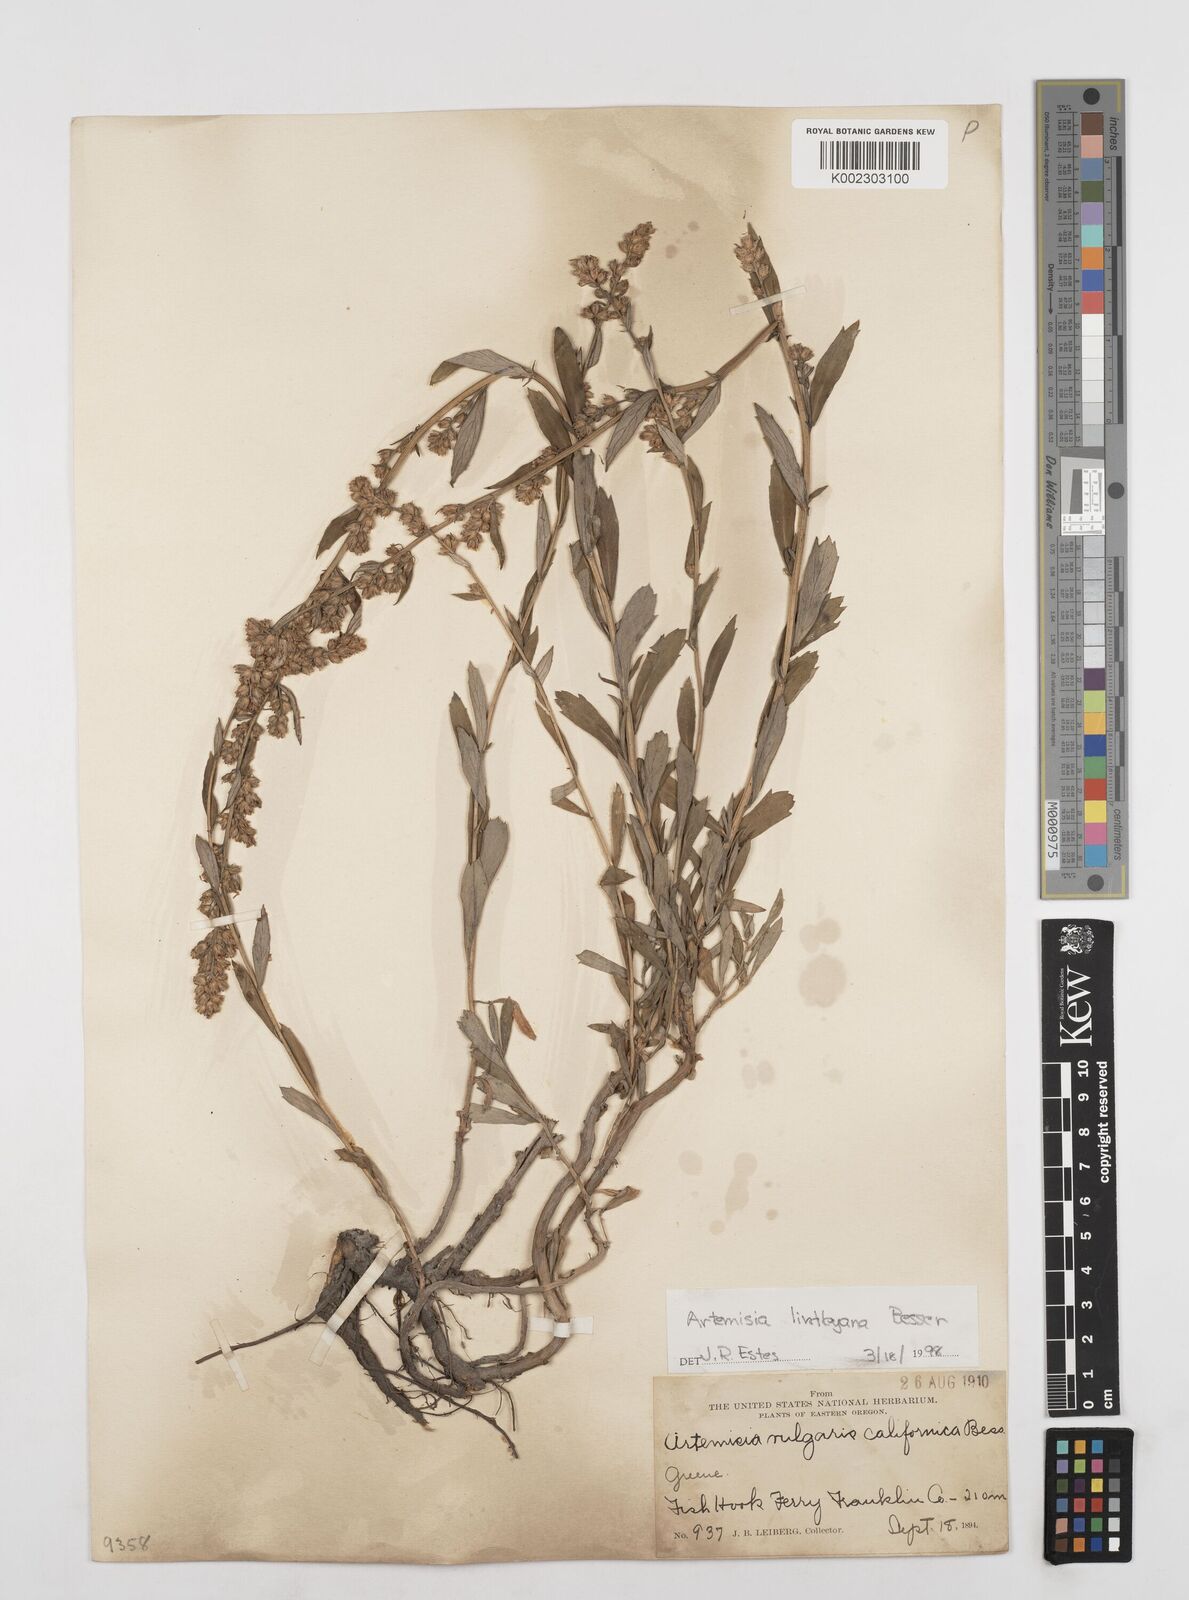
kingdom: Plantae
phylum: Tracheophyta
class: Magnoliopsida
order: Asterales
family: Asteraceae
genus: Artemisia
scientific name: Artemisia ludoviciana
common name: Western mugwort
